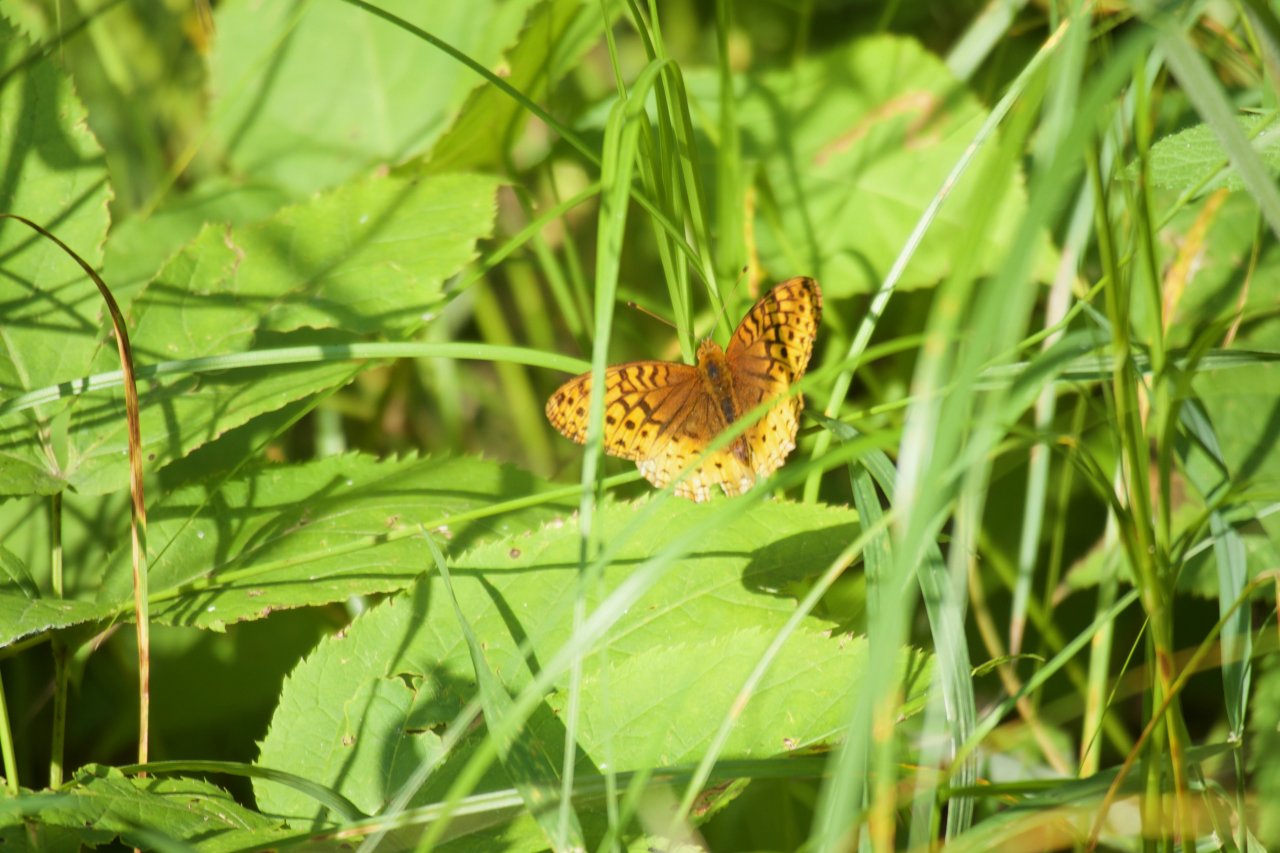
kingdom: Animalia
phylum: Arthropoda
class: Insecta
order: Lepidoptera
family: Nymphalidae
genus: Speyeria
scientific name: Speyeria cybele
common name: Great Spangled Fritillary
